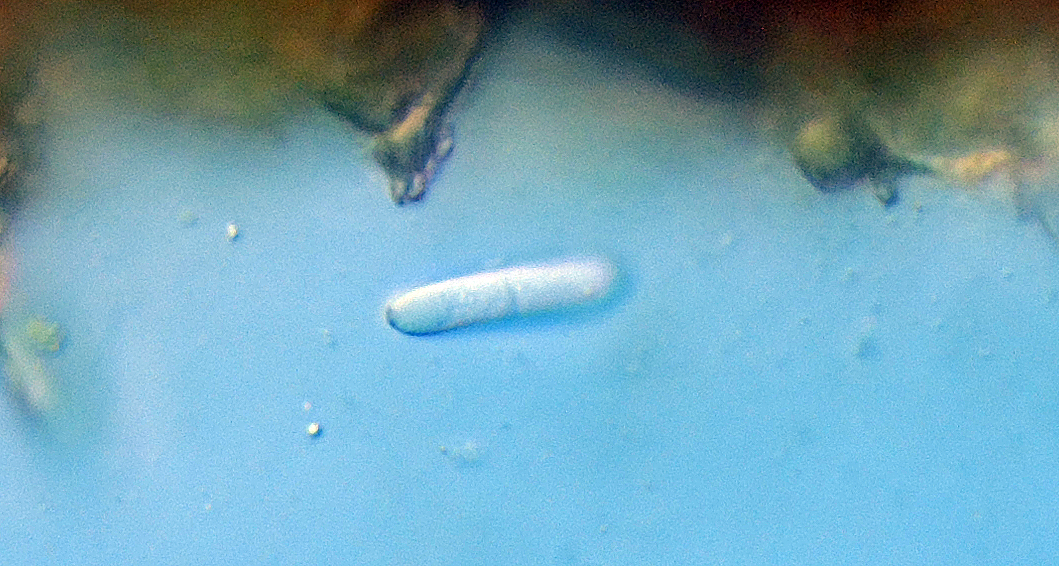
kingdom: Fungi
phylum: Ascomycota
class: Dothideomycetes
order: Mycosphaerellales
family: Mycosphaerellaceae
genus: Ramularia
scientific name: Ramularia rhabdospora
